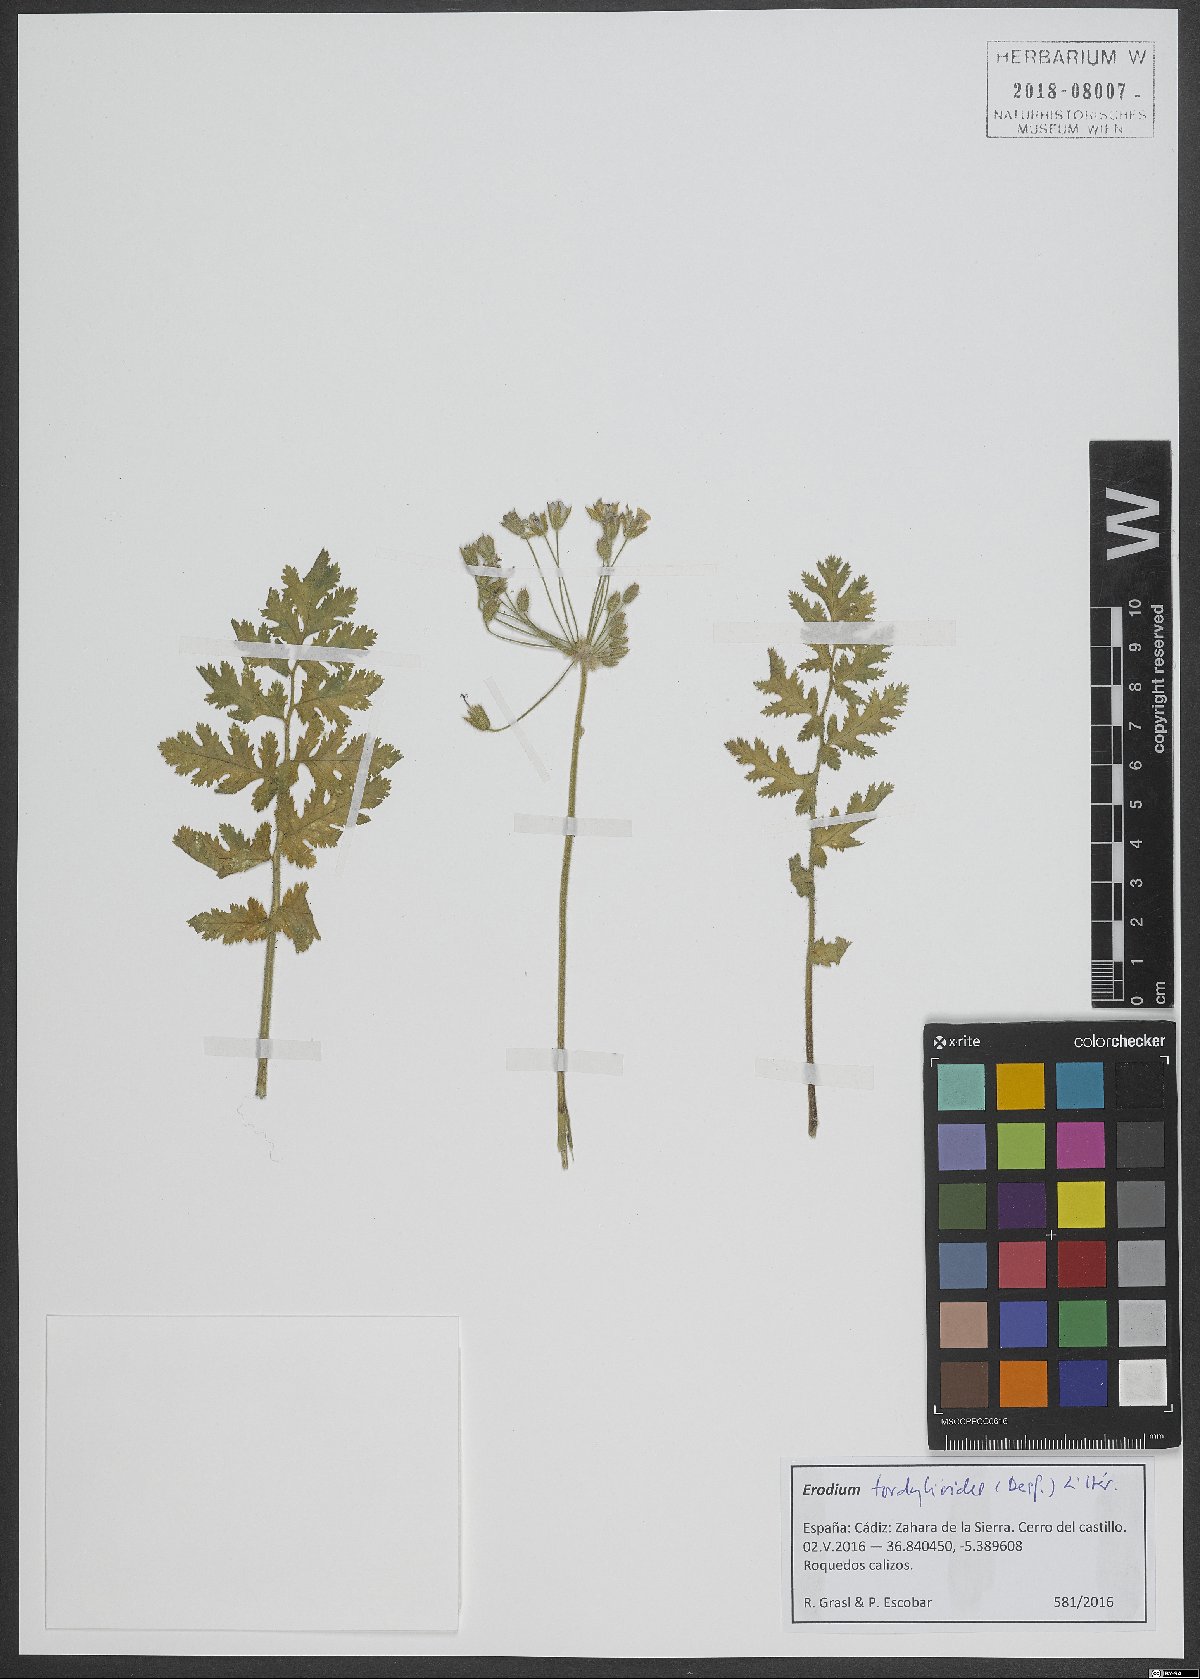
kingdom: Plantae
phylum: Tracheophyta
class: Magnoliopsida
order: Geraniales
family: Geraniaceae
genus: Erodium
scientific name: Erodium tordylioides
